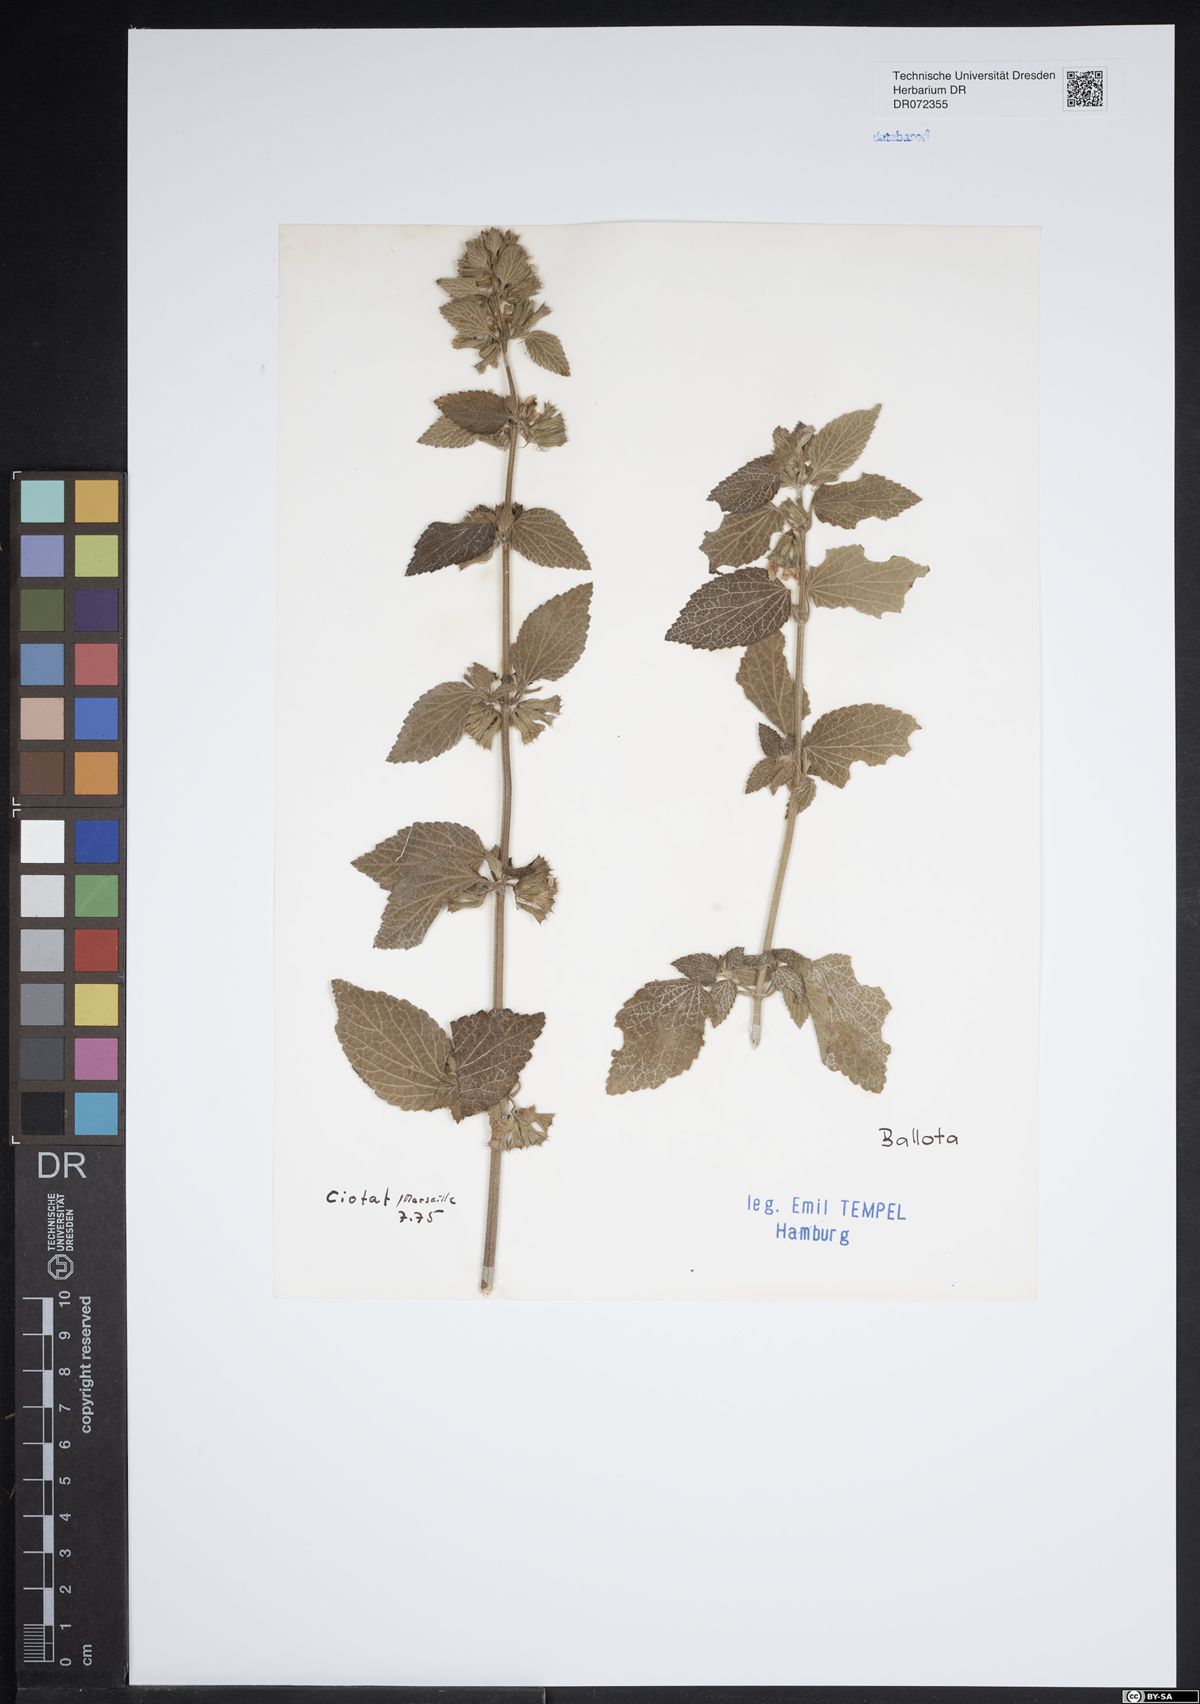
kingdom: Plantae
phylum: Tracheophyta
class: Magnoliopsida
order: Lamiales
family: Lamiaceae
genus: Ballota
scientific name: Ballota
